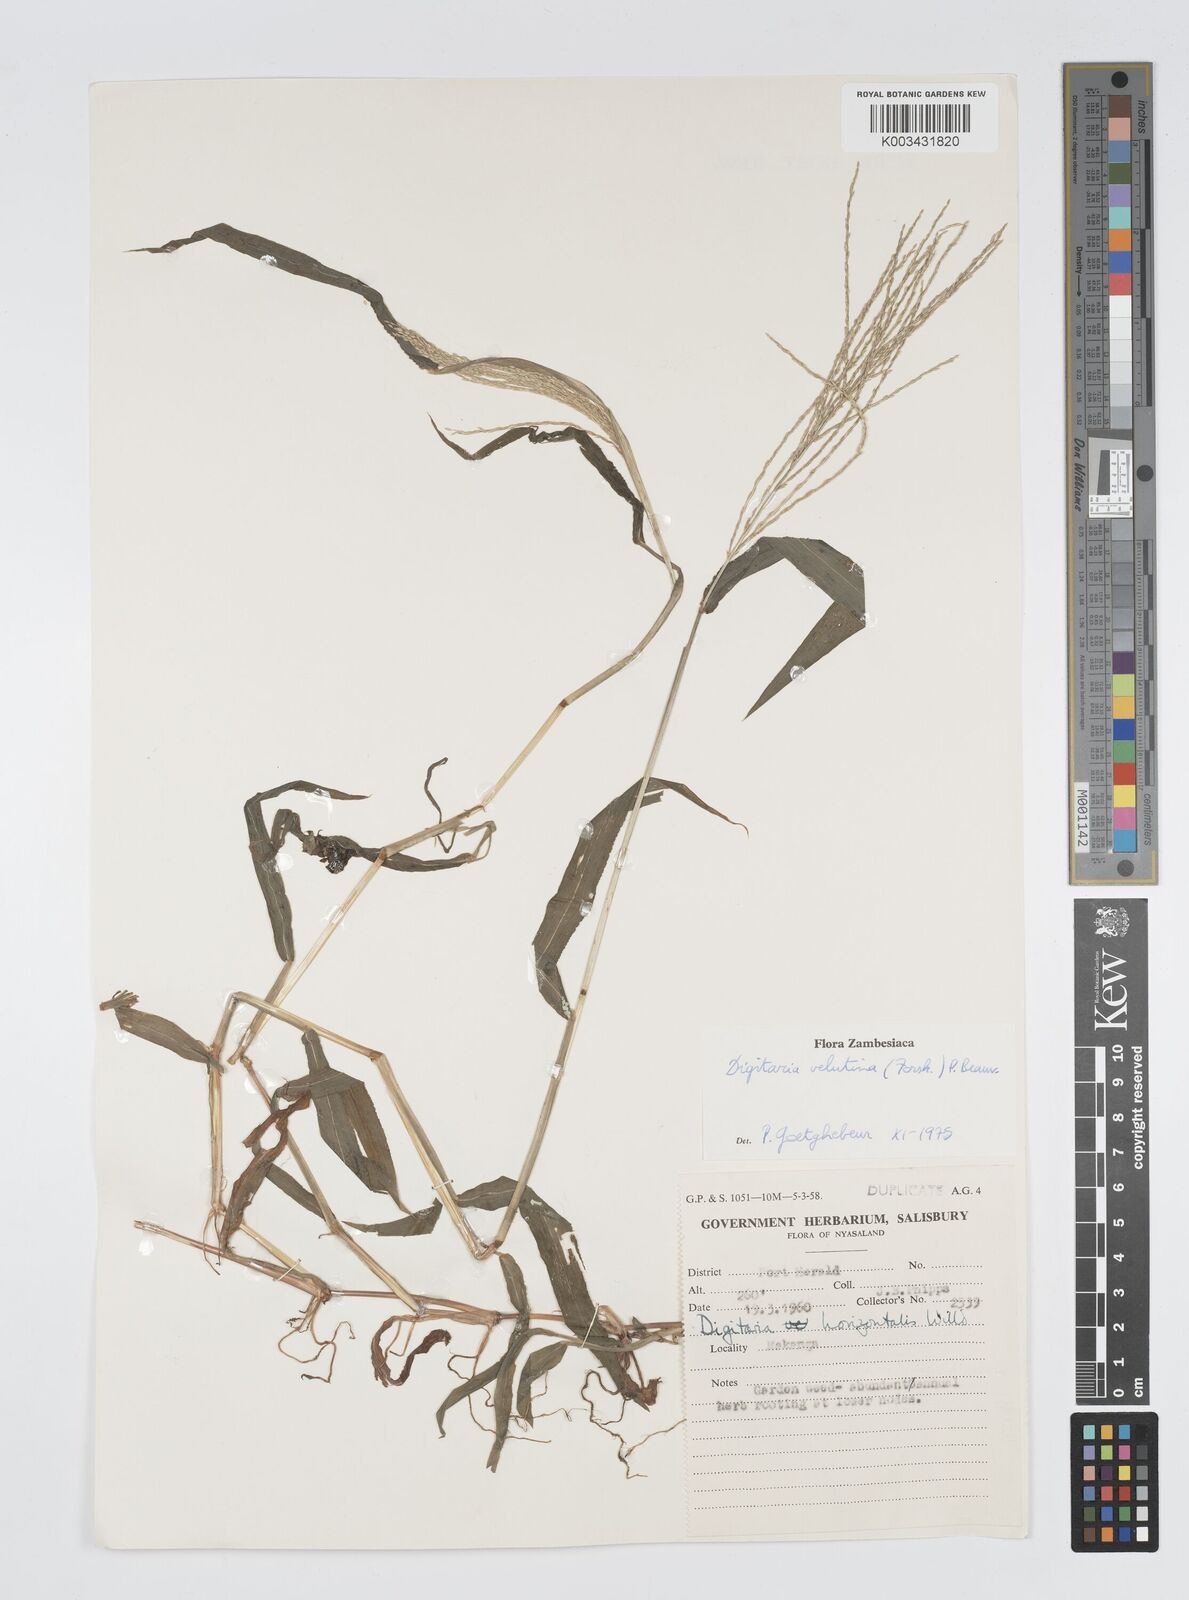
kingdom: Plantae
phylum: Tracheophyta
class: Liliopsida
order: Poales
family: Poaceae
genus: Digitaria
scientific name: Digitaria velutina
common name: Long-plume finger grass
